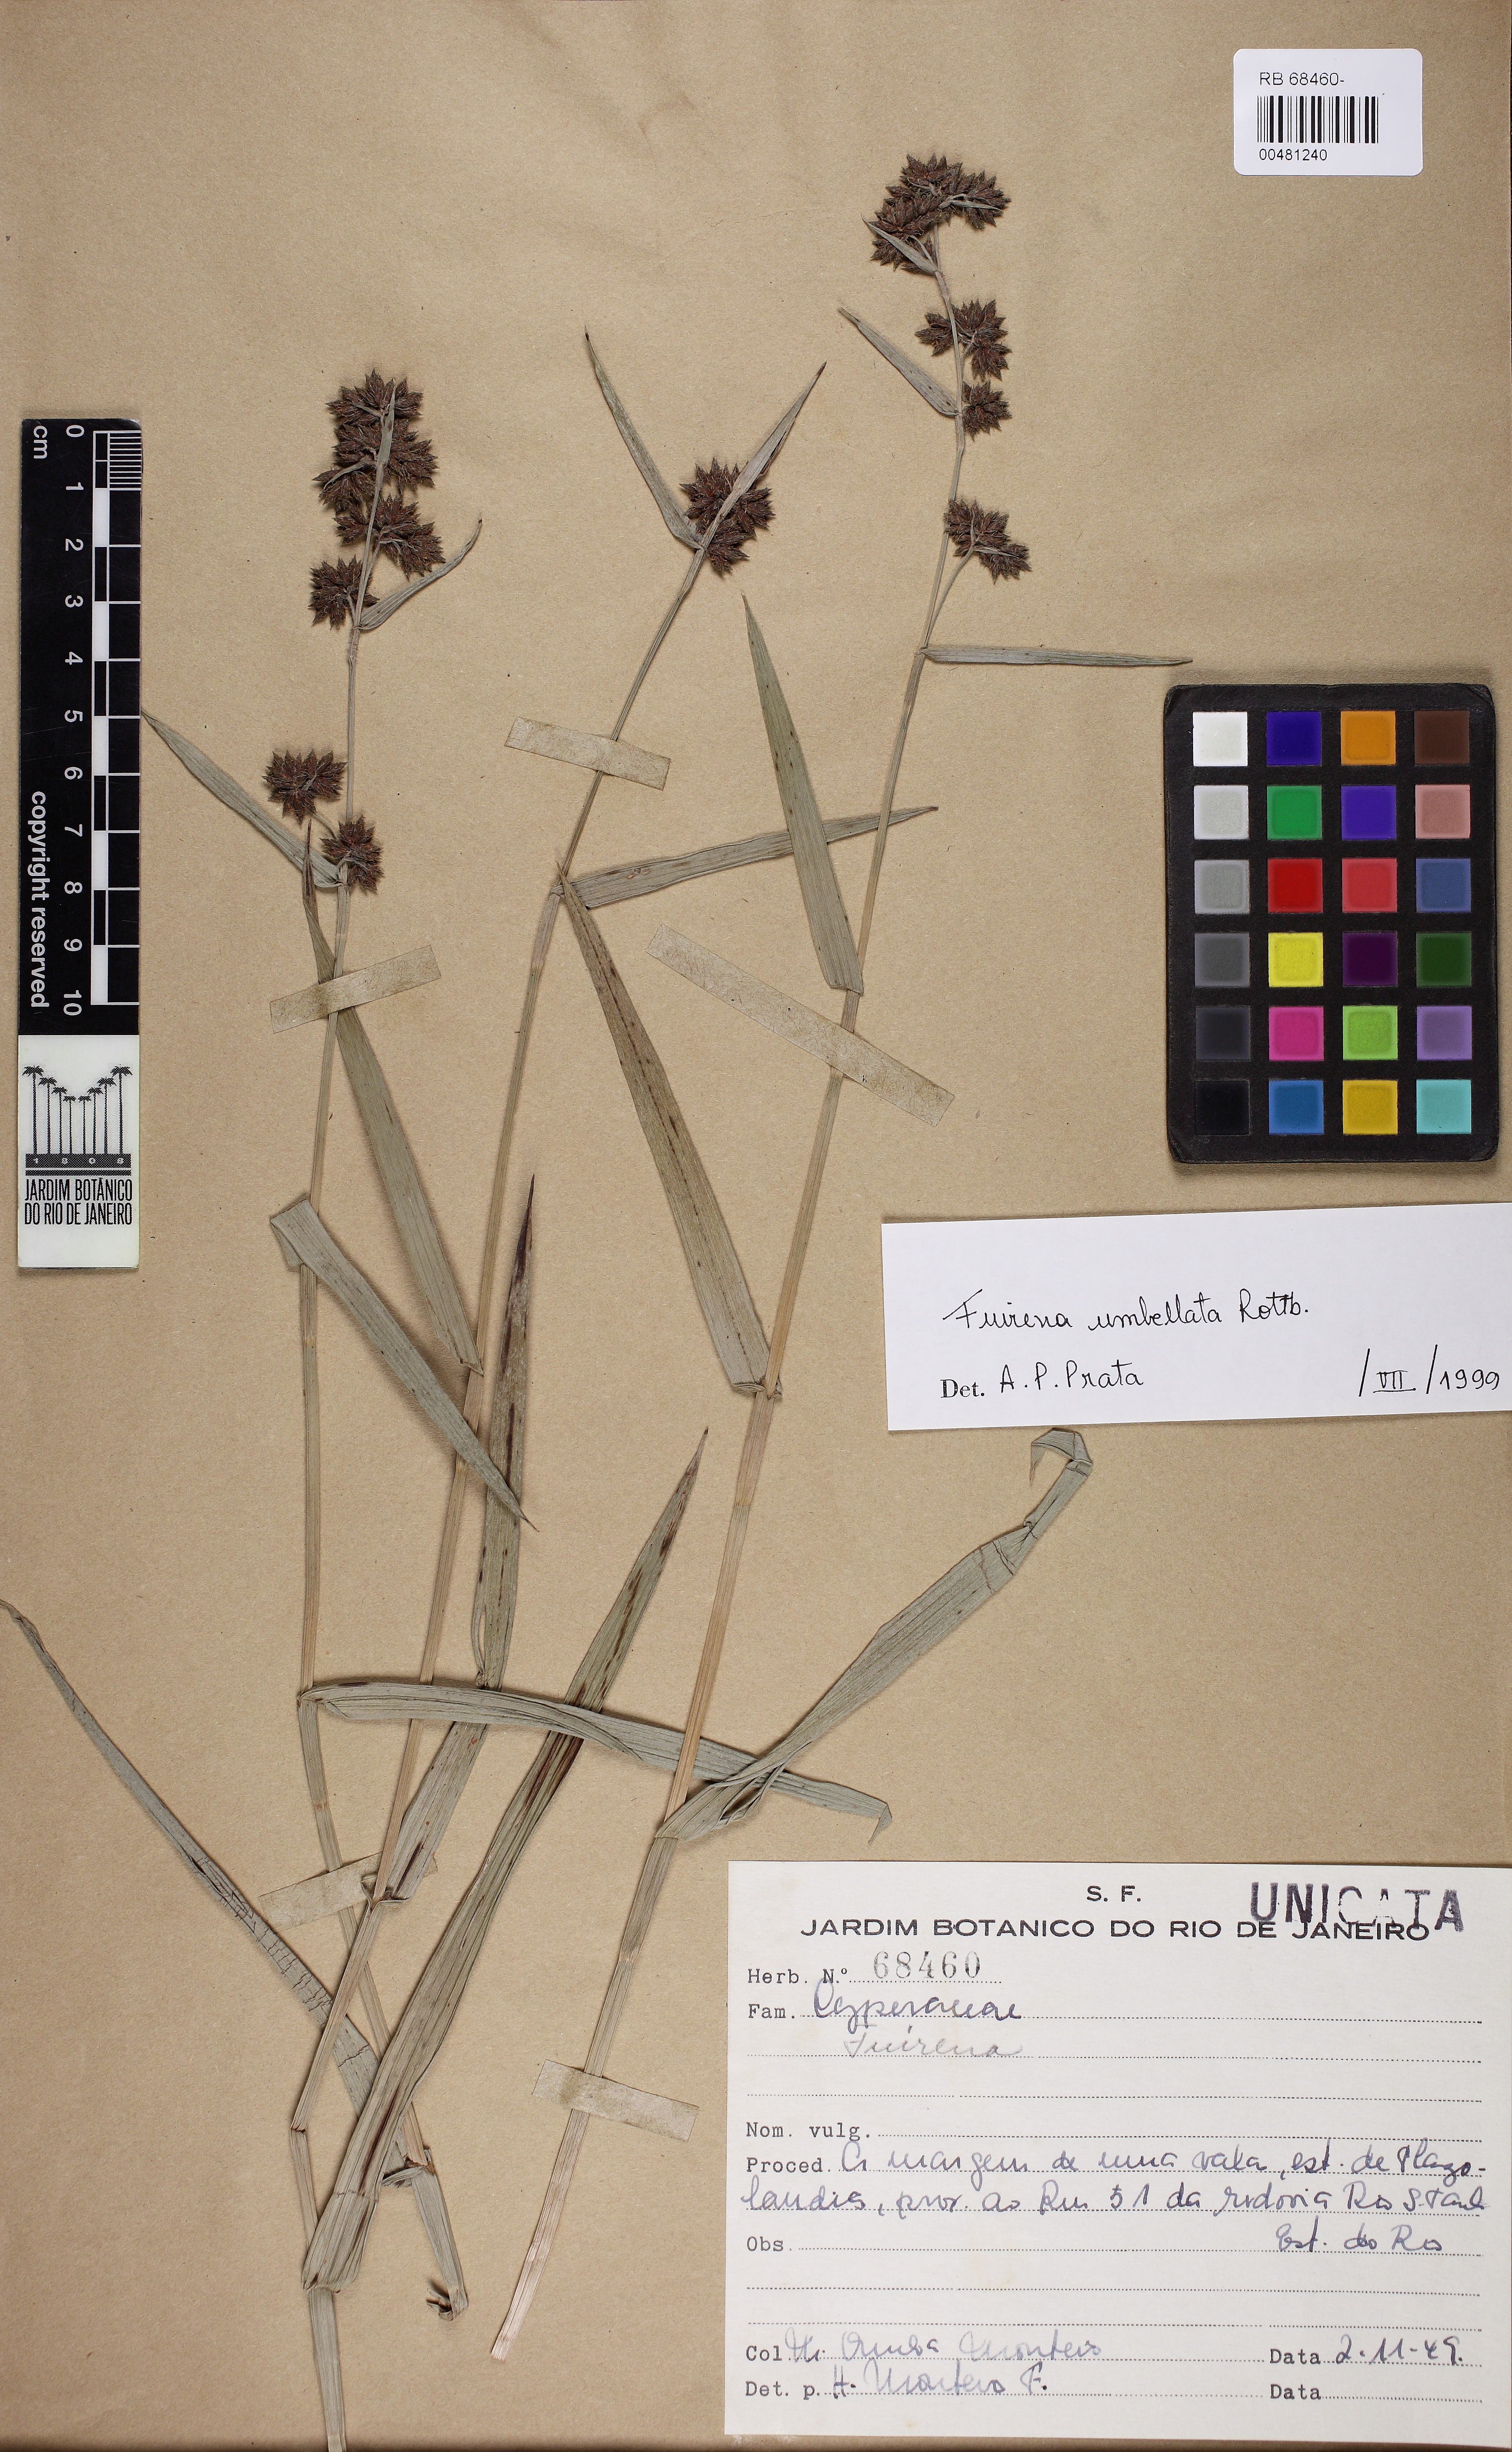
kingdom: Plantae
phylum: Tracheophyta
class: Liliopsida
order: Poales
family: Cyperaceae
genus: Fuirena
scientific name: Fuirena umbellata
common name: Yefen
